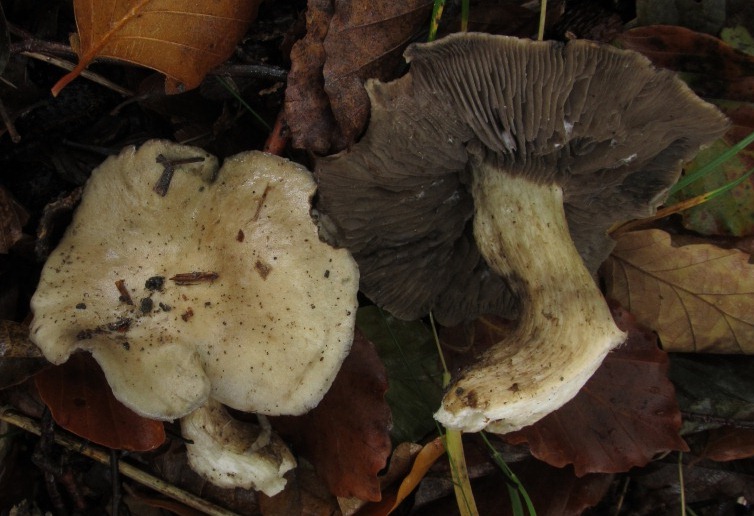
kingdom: Fungi
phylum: Basidiomycota
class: Agaricomycetes
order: Agaricales
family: Lyophyllaceae
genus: Lyophyllum
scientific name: Lyophyllum eustygium
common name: tykbladet gråblad
